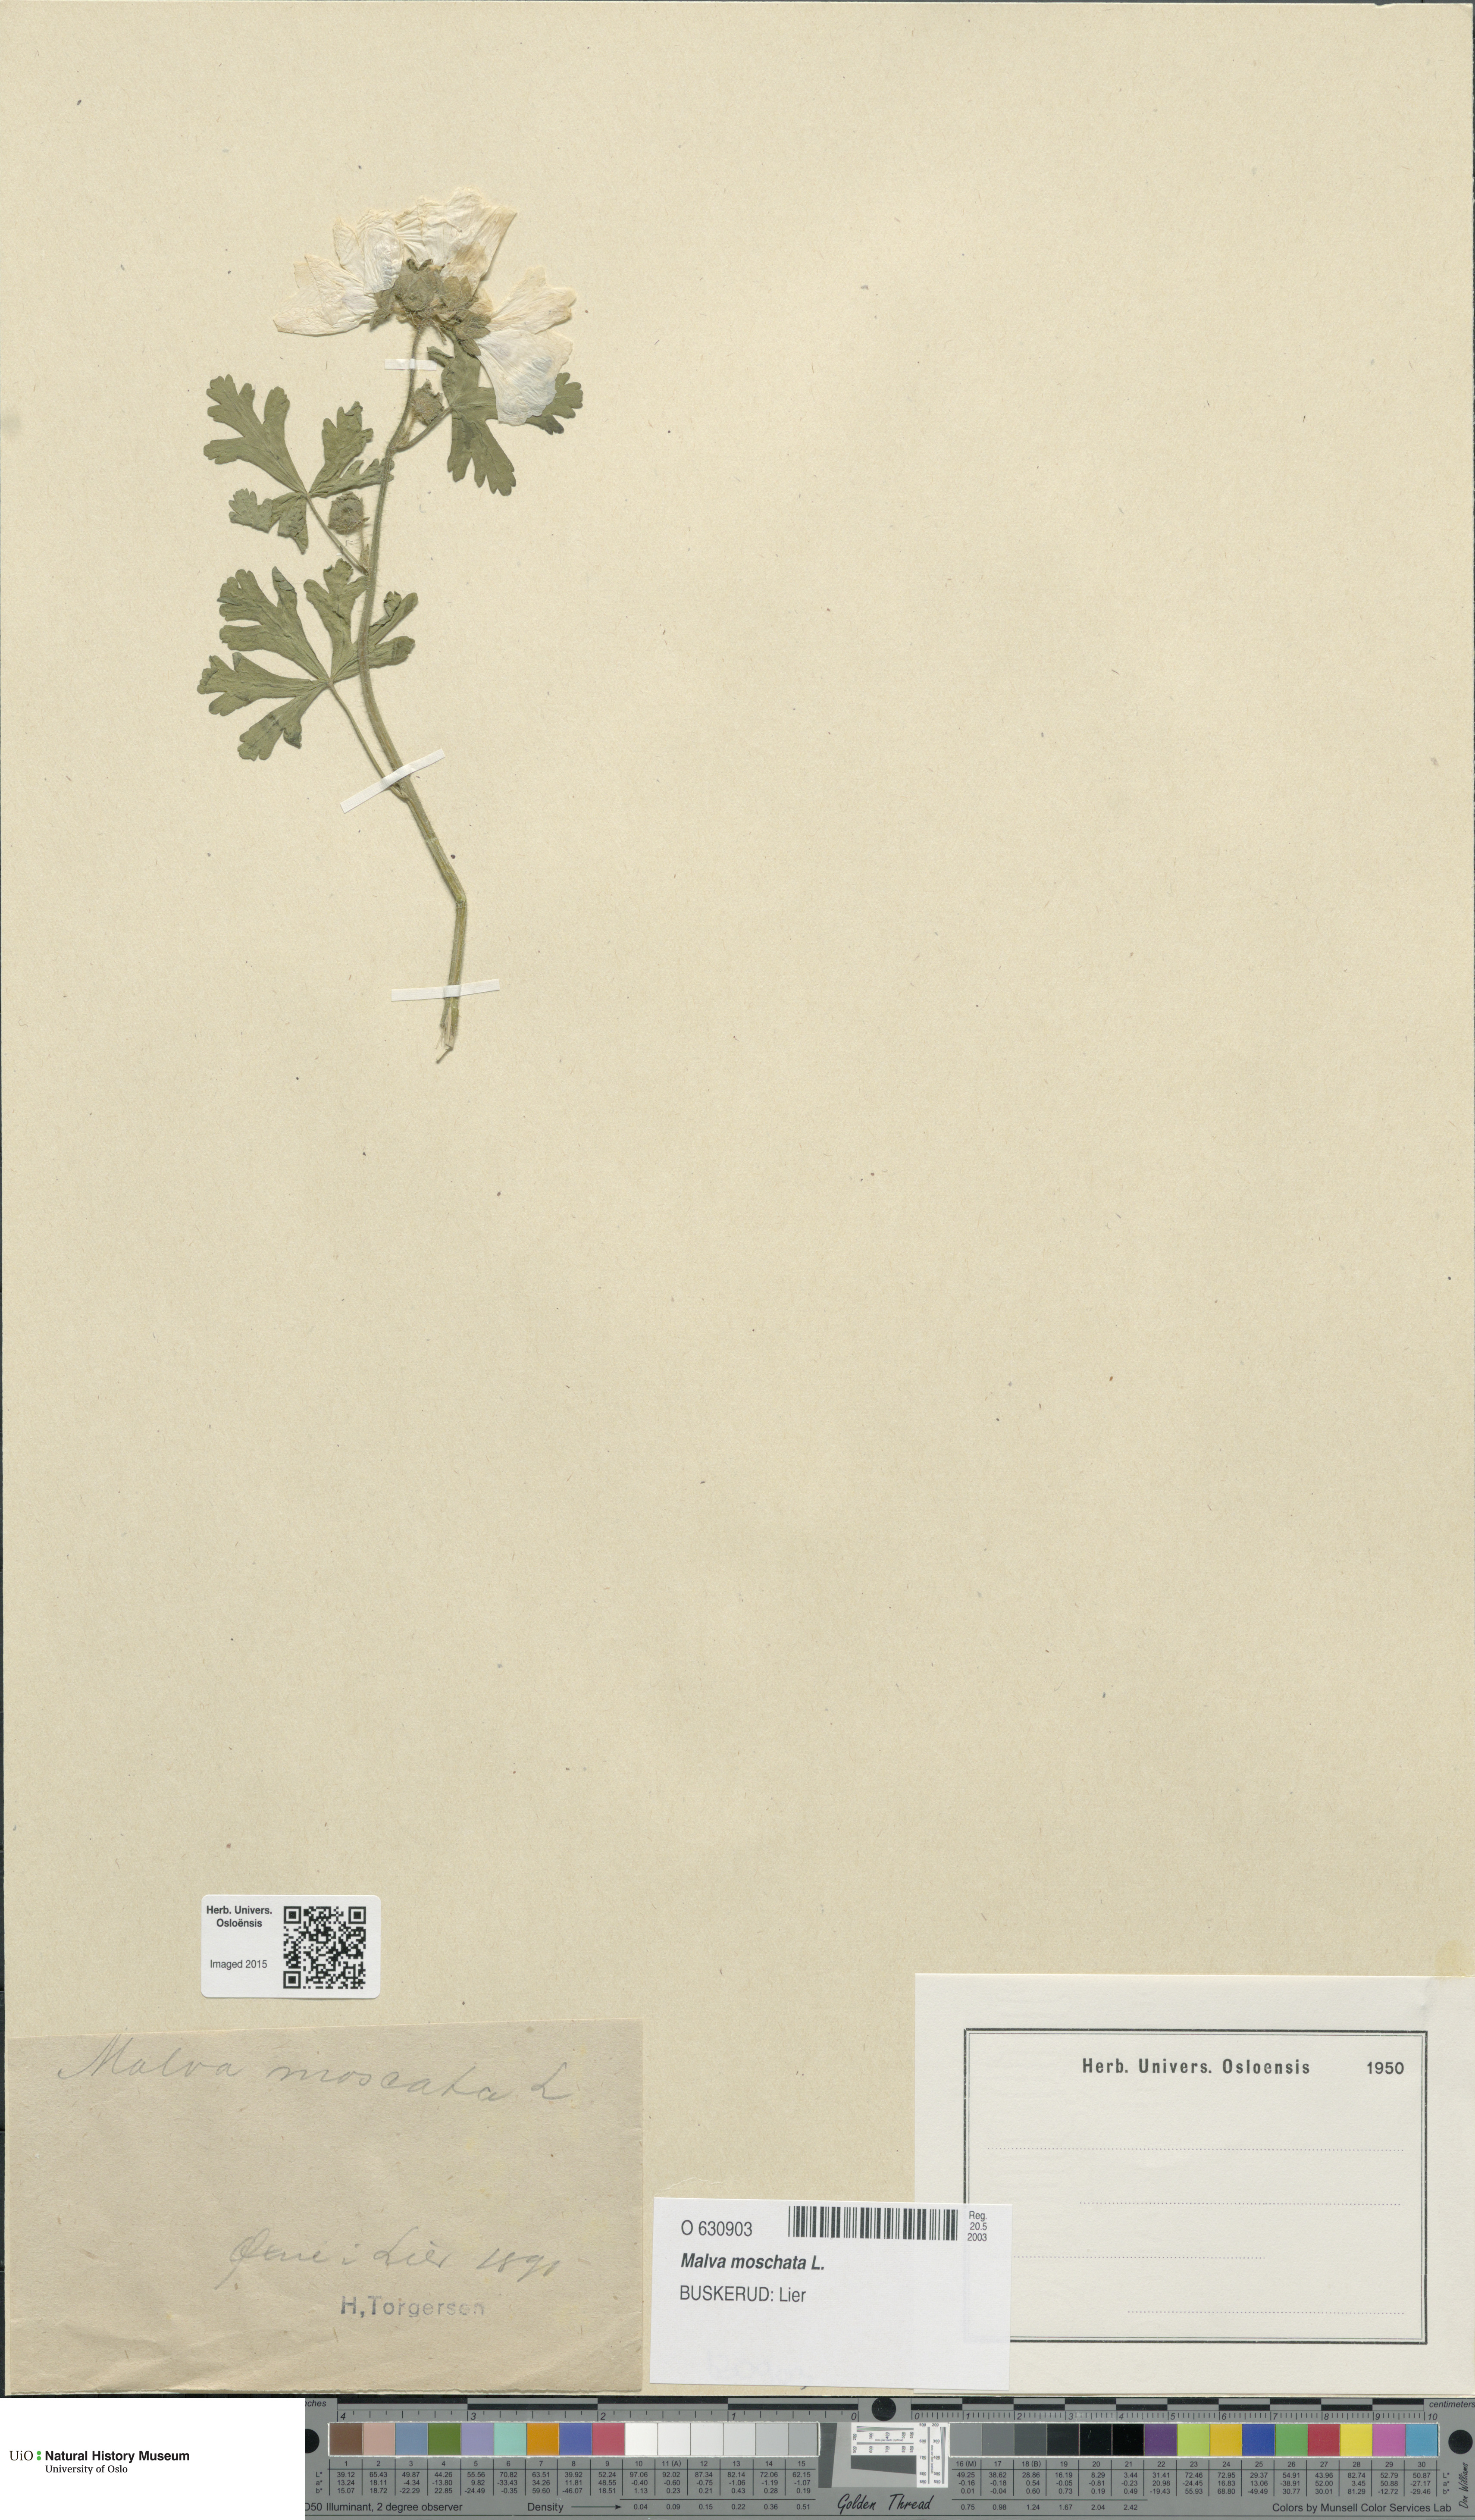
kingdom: Plantae
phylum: Tracheophyta
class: Magnoliopsida
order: Malvales
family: Malvaceae
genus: Malva
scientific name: Malva moschata
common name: Musk mallow
